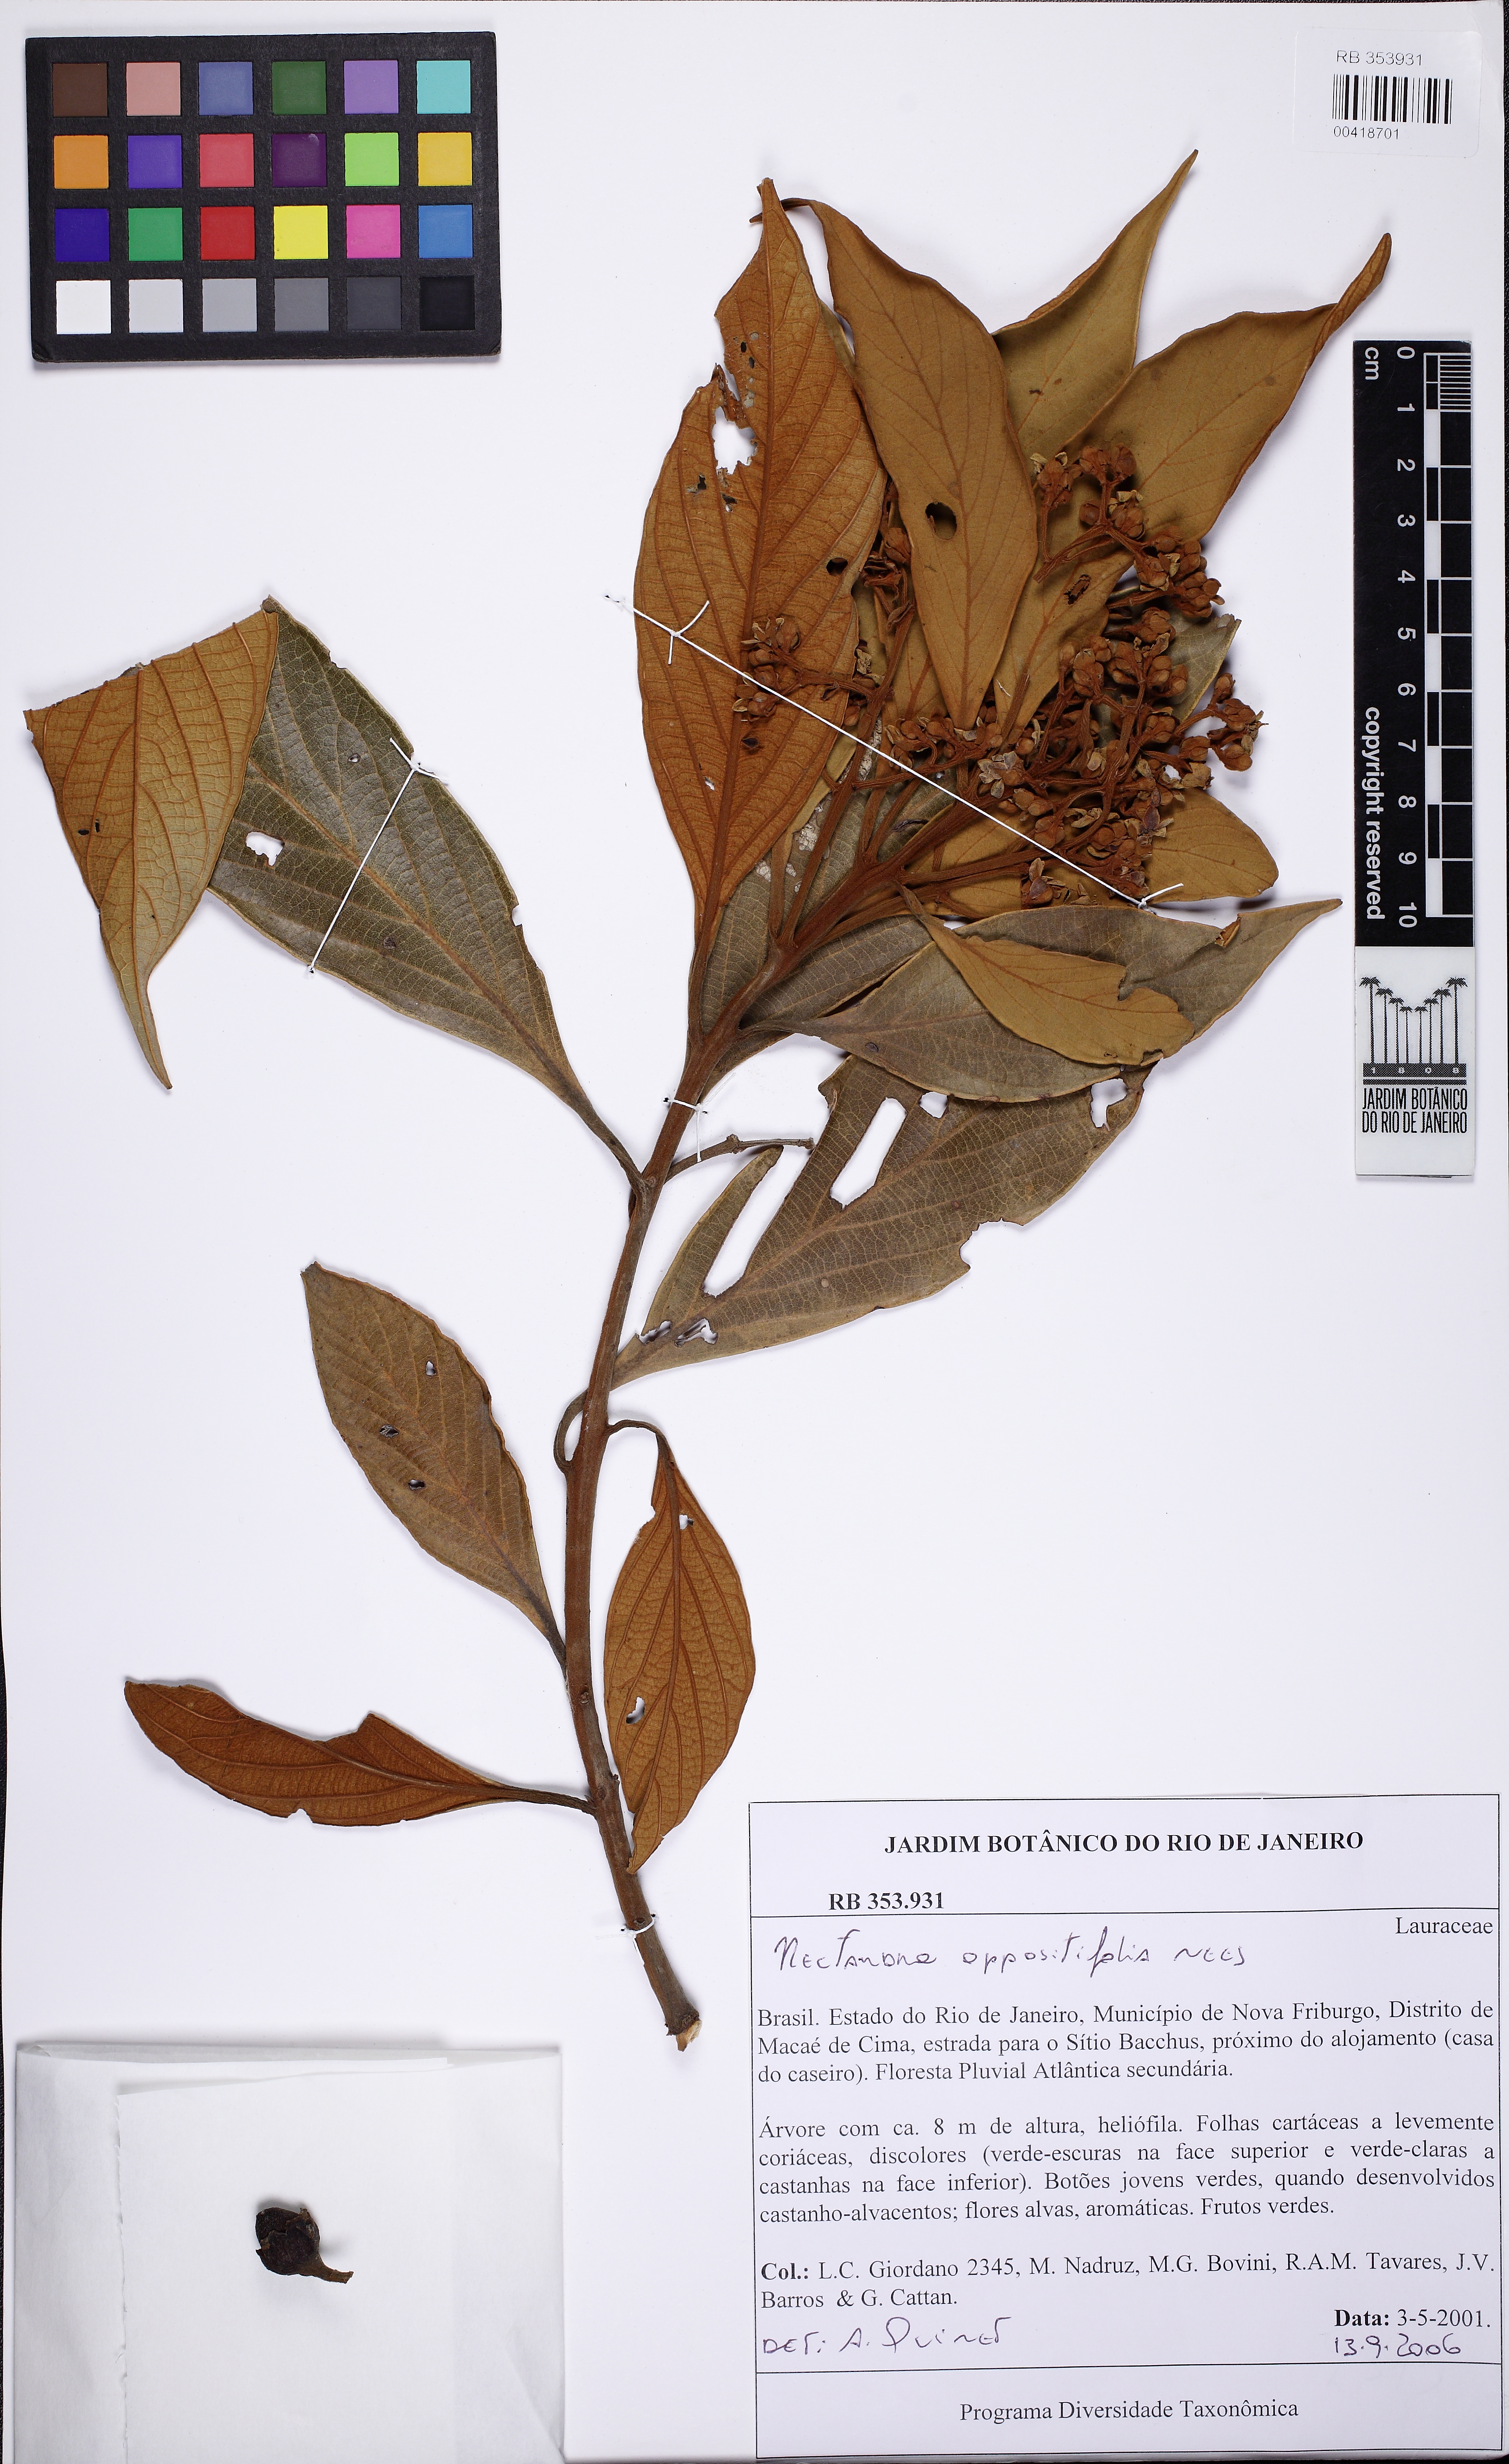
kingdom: Plantae
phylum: Tracheophyta
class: Magnoliopsida
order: Laurales
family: Lauraceae
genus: Nectandra
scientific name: Nectandra oppositifolia
